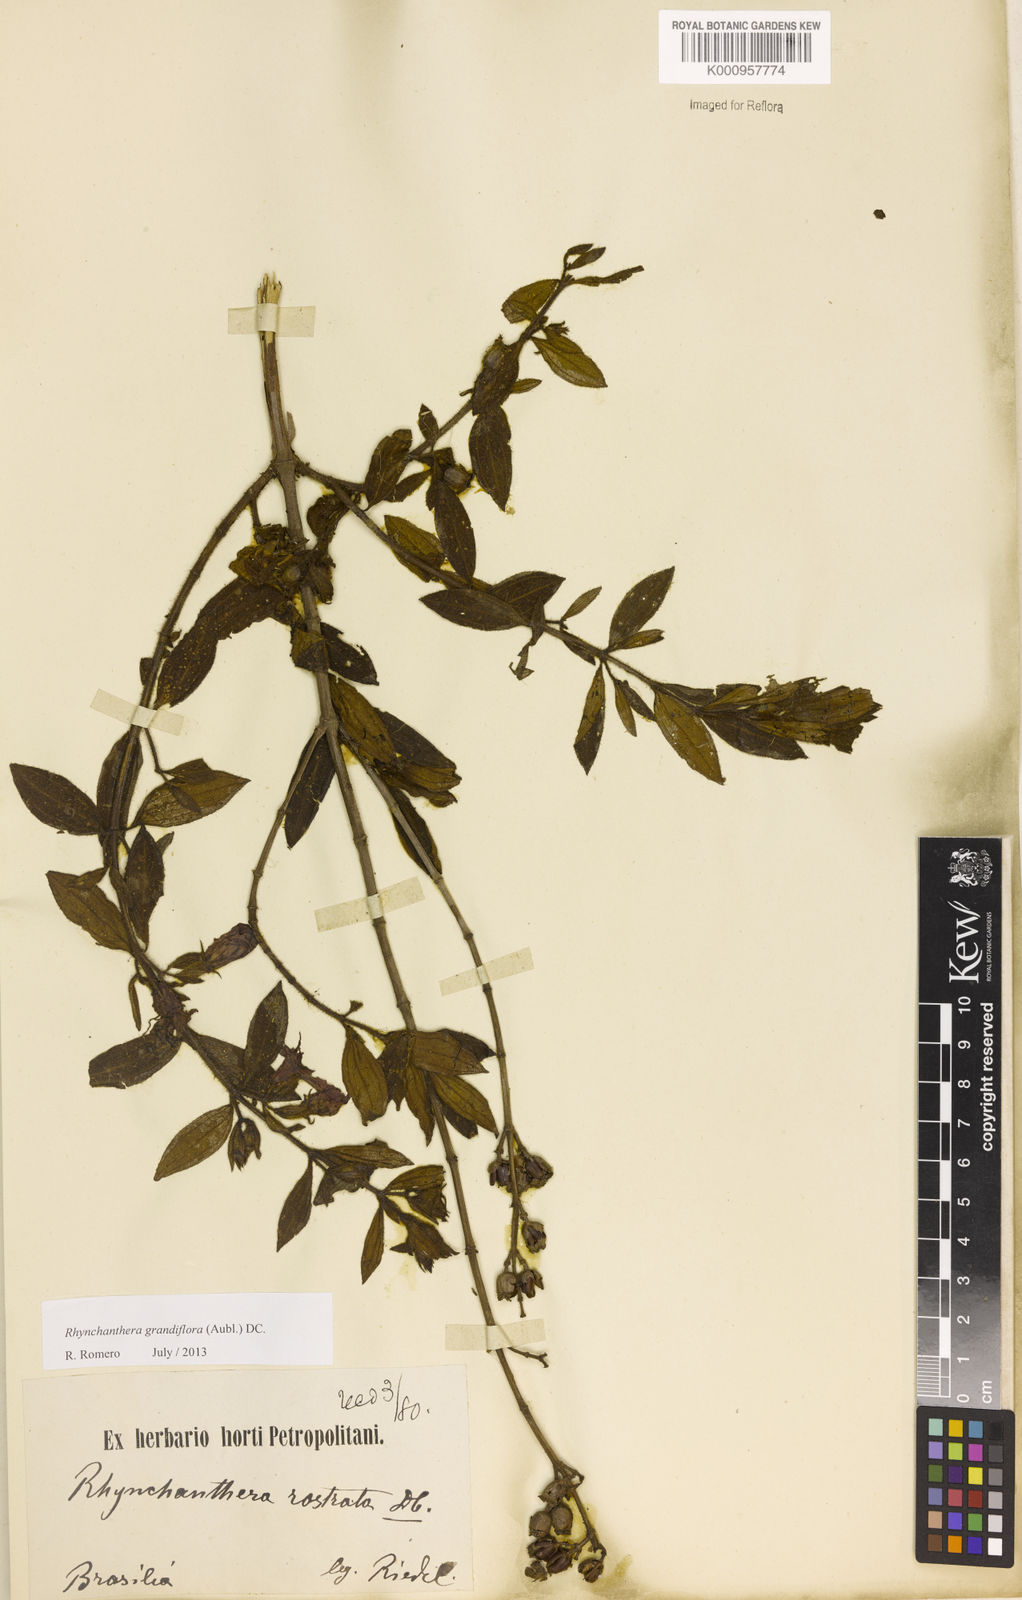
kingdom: Plantae
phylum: Tracheophyta
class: Magnoliopsida
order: Myrtales
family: Melastomataceae
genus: Rhynchanthera
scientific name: Rhynchanthera grandiflora
